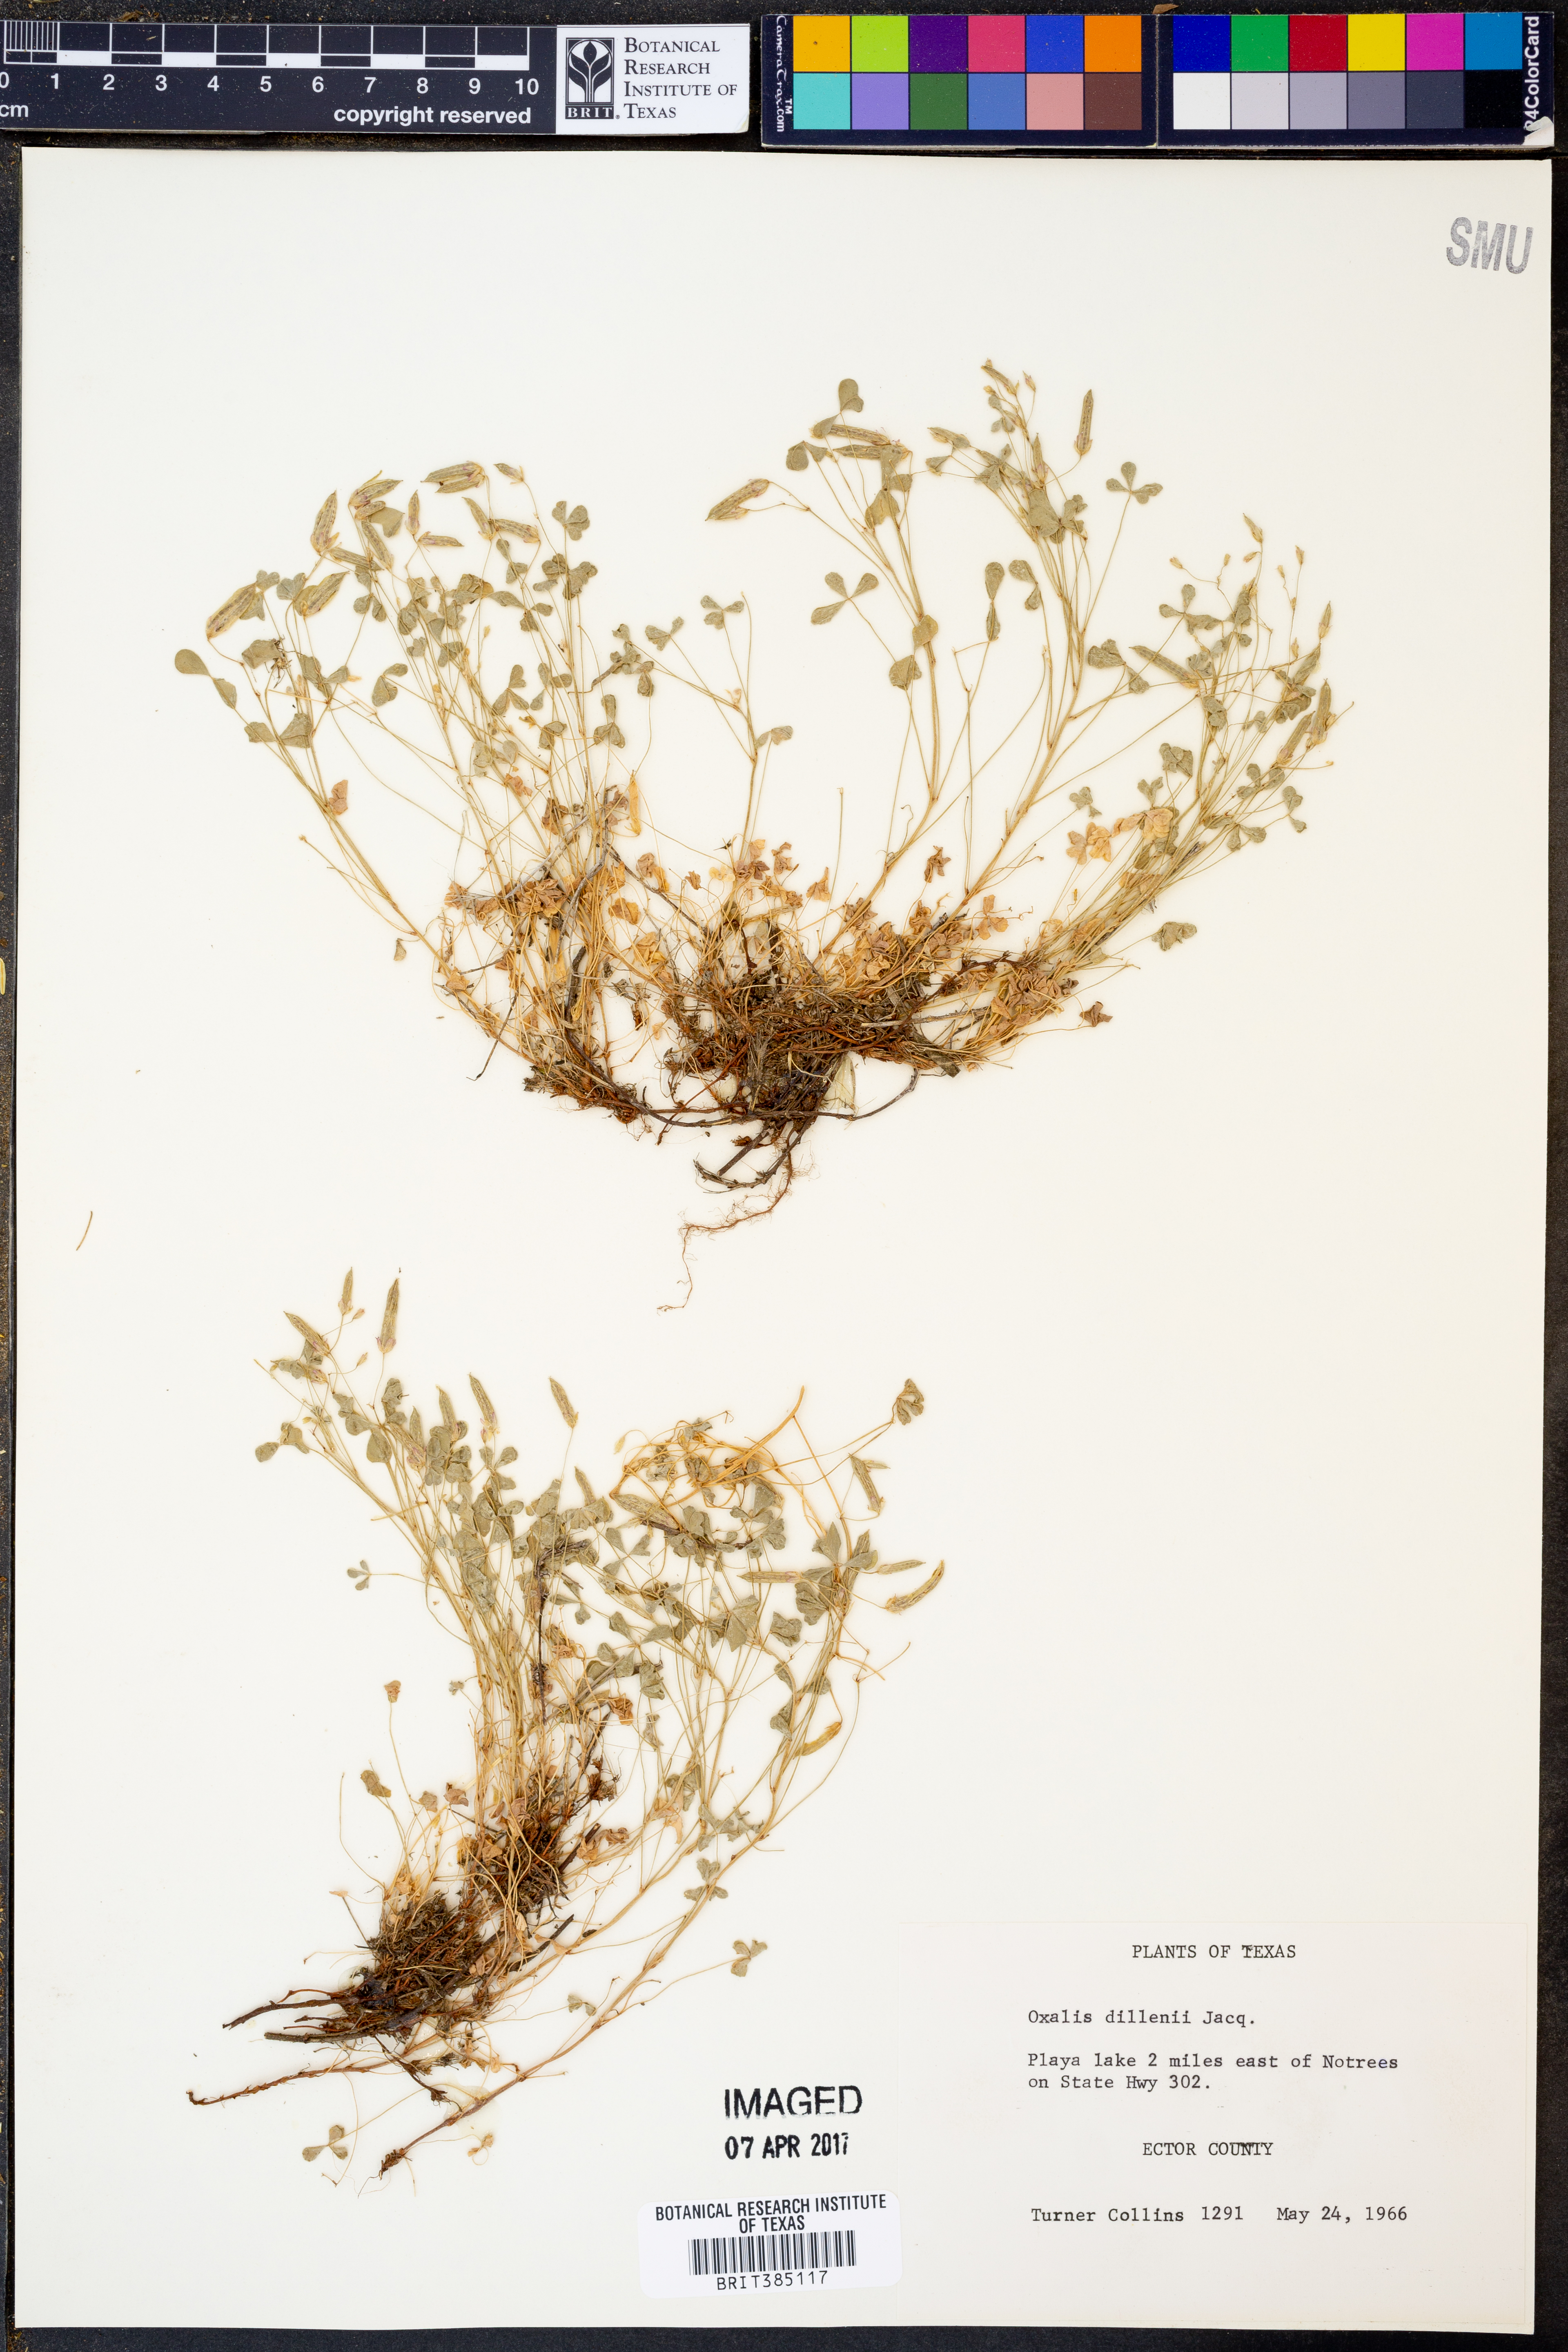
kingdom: Plantae
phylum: Tracheophyta
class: Magnoliopsida
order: Oxalidales
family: Oxalidaceae
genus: Oxalis
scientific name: Oxalis dillenii
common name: Sussex yellow-sorrel
